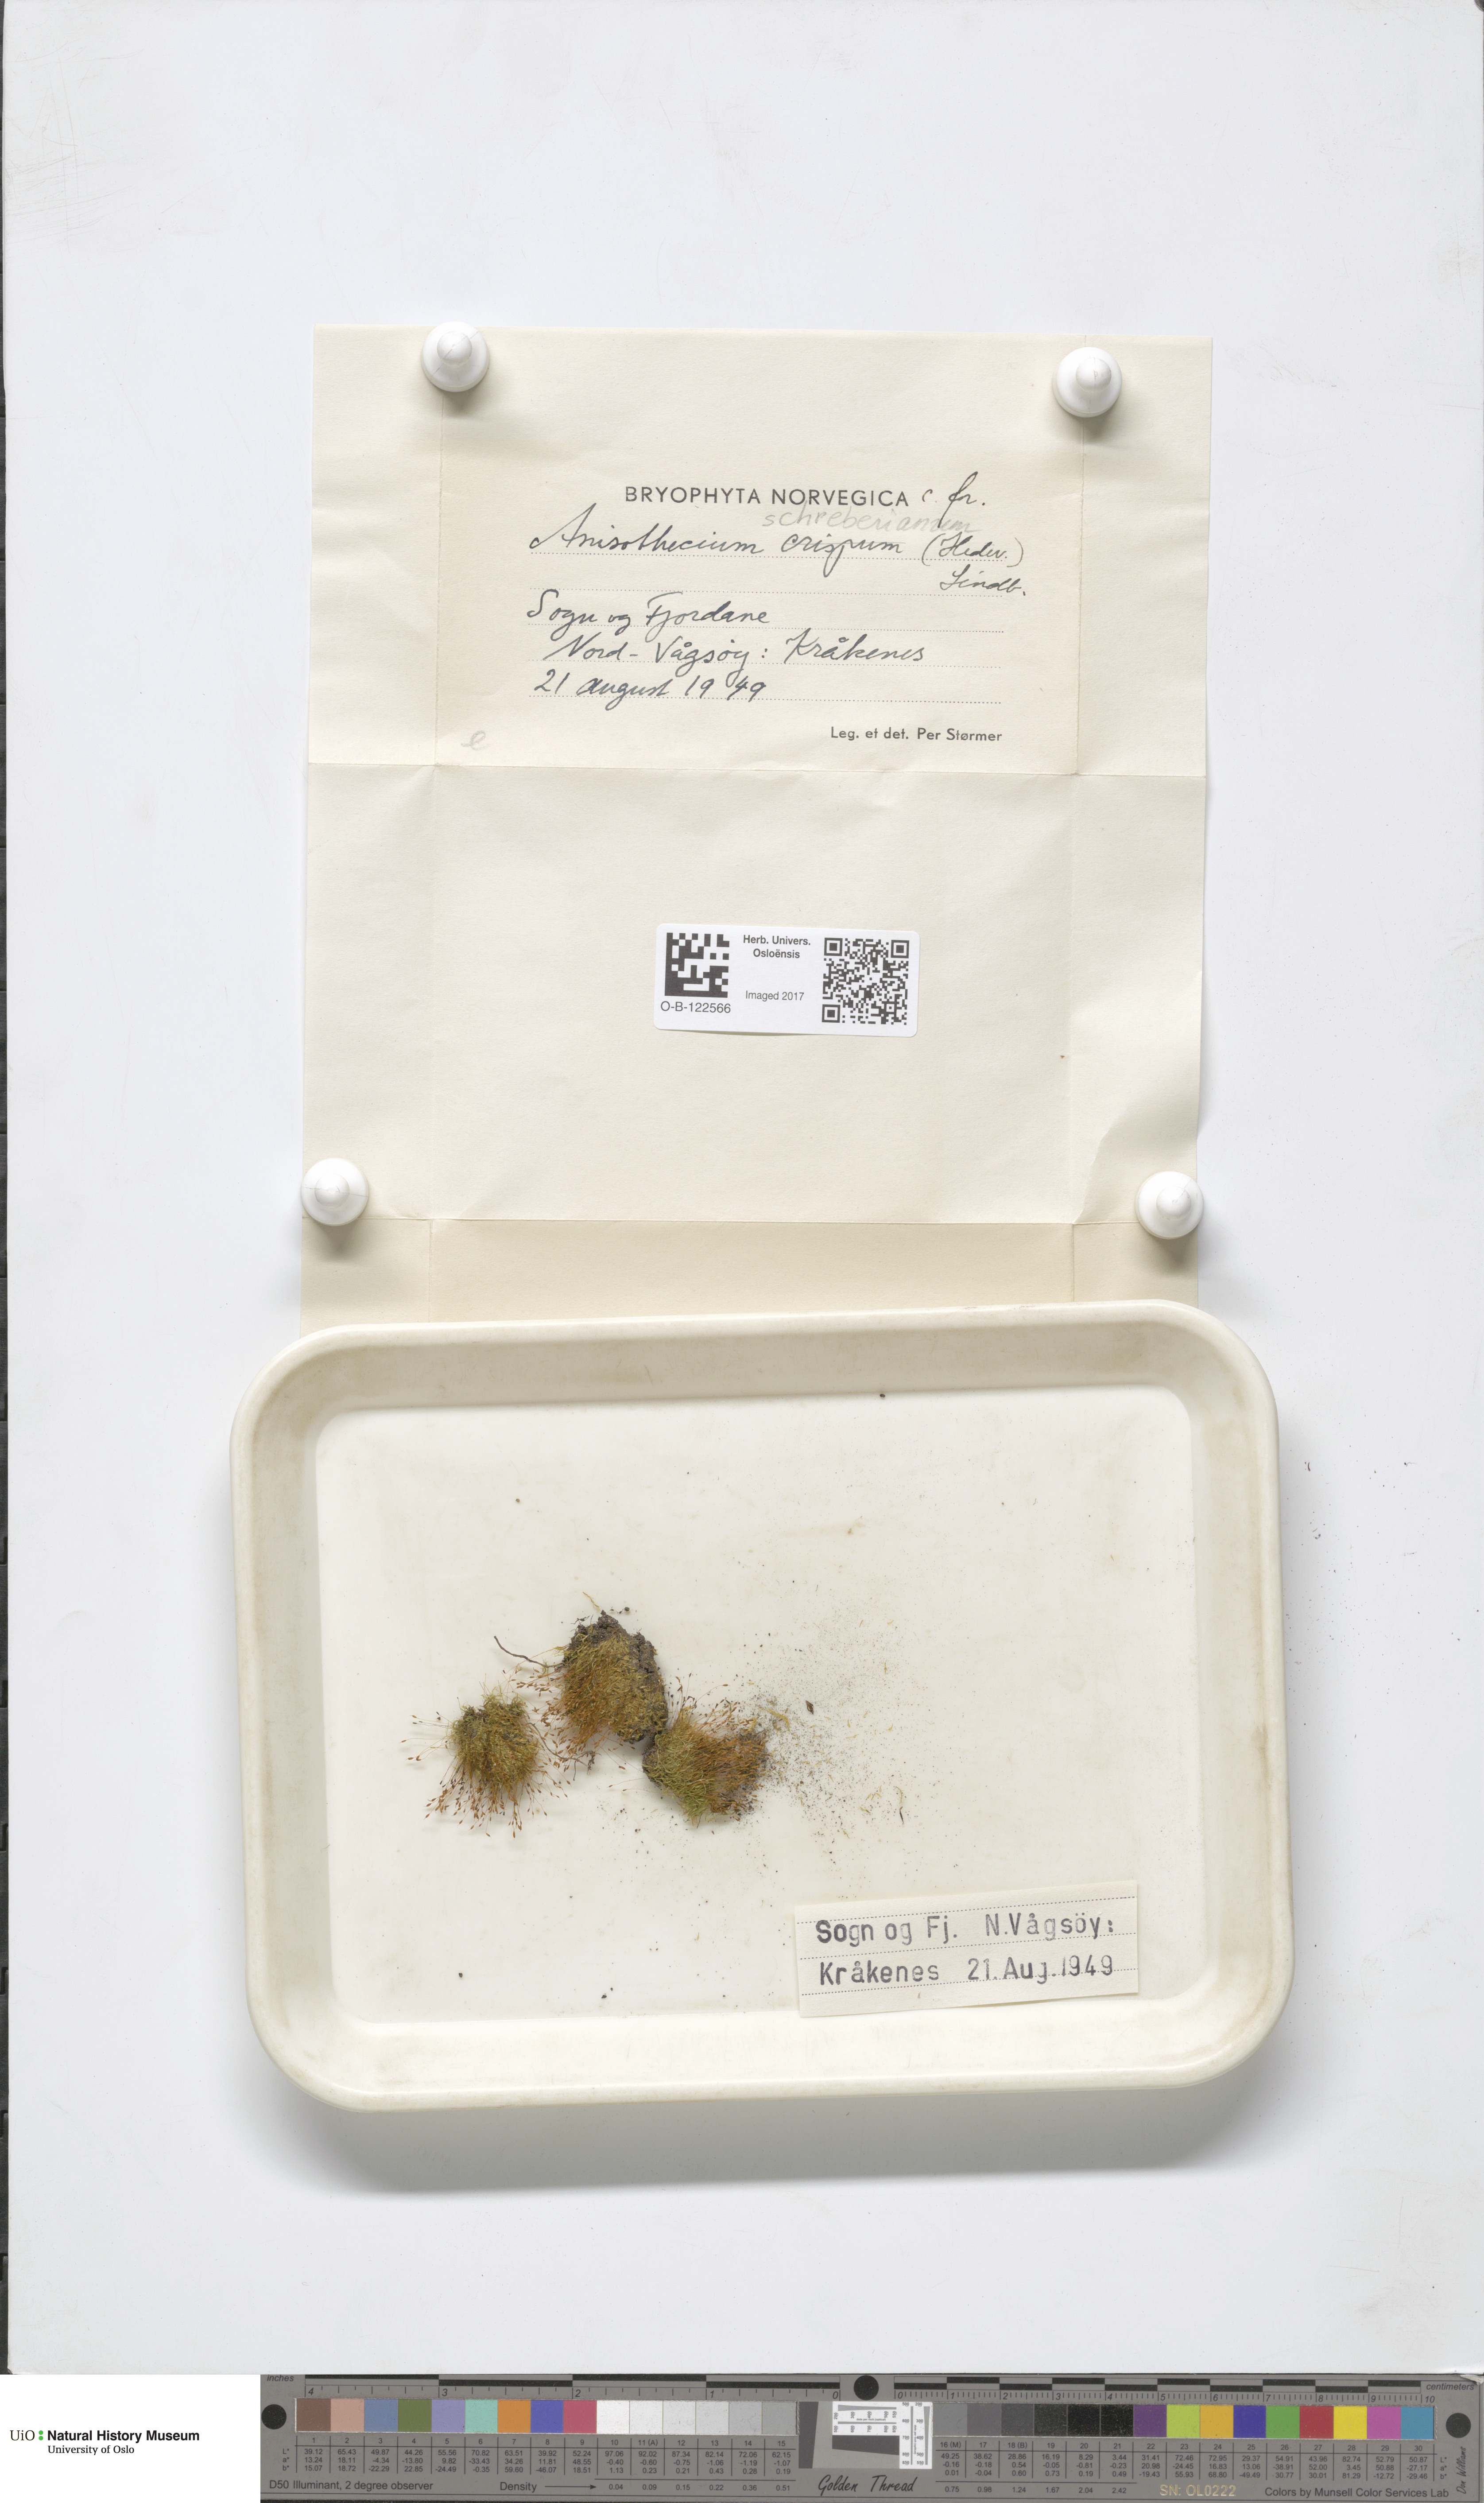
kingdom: Plantae
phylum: Bryophyta
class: Bryopsida
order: Dicranales
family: Dicranellaceae
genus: Dicranella
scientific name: Dicranella schreberiana
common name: Schreber's forklet moss
